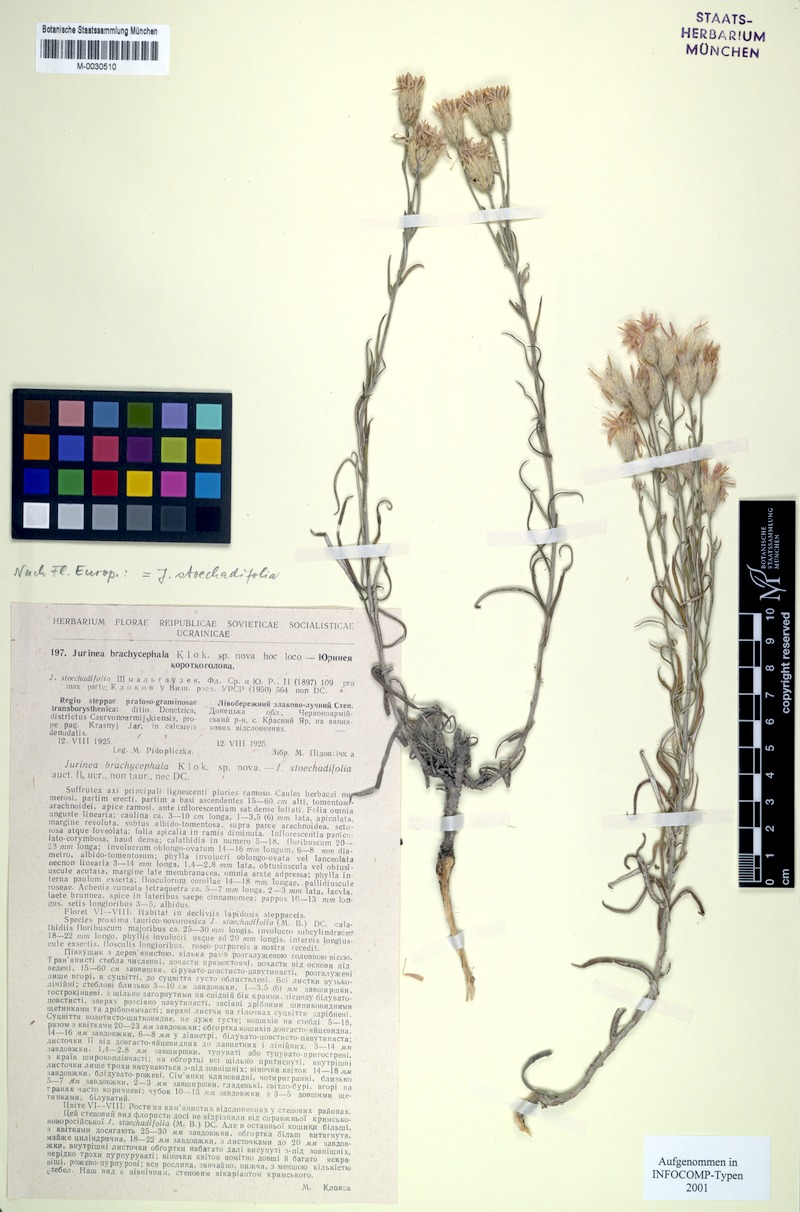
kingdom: Plantae
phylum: Tracheophyta
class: Magnoliopsida
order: Asterales
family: Asteraceae
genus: Jurinea
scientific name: Jurinea stoechadifolia
